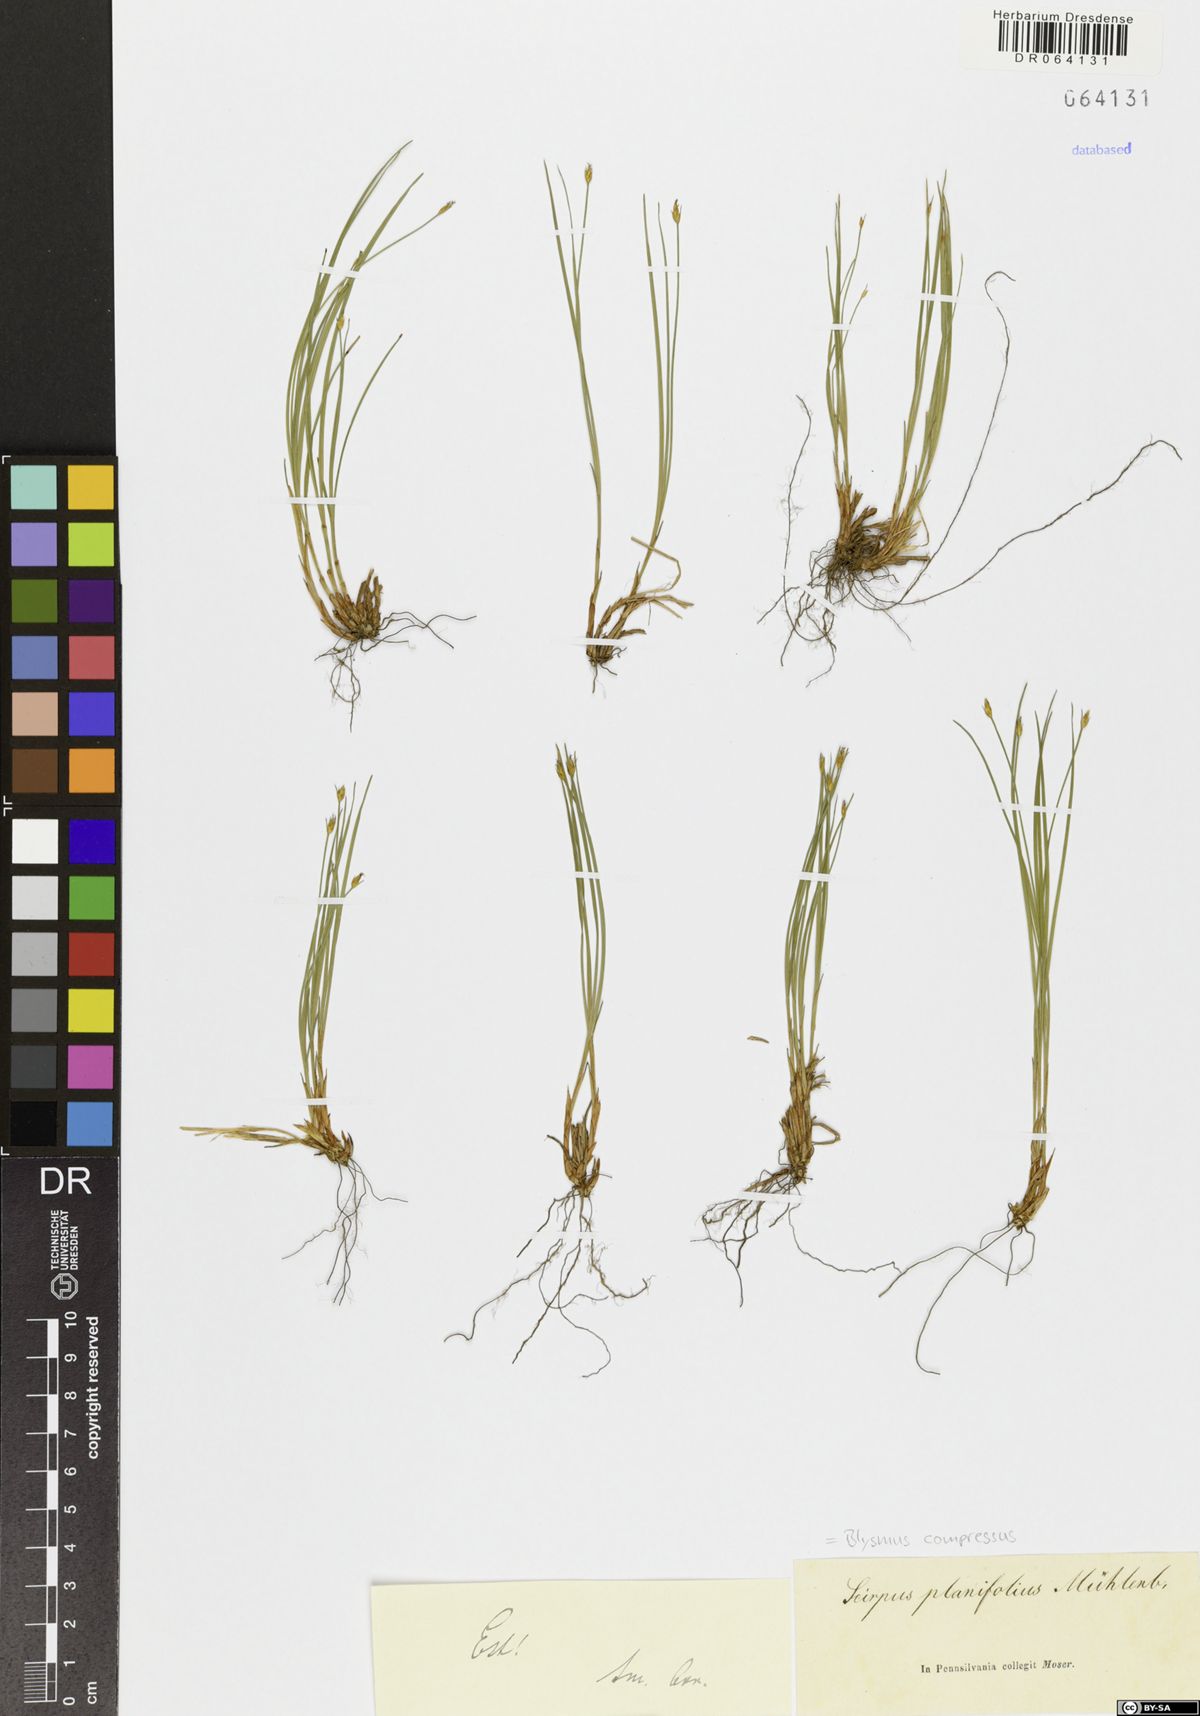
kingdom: Plantae
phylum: Tracheophyta
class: Liliopsida
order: Poales
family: Cyperaceae
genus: Blysmus
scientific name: Blysmus compressus
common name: Flat-sedge
